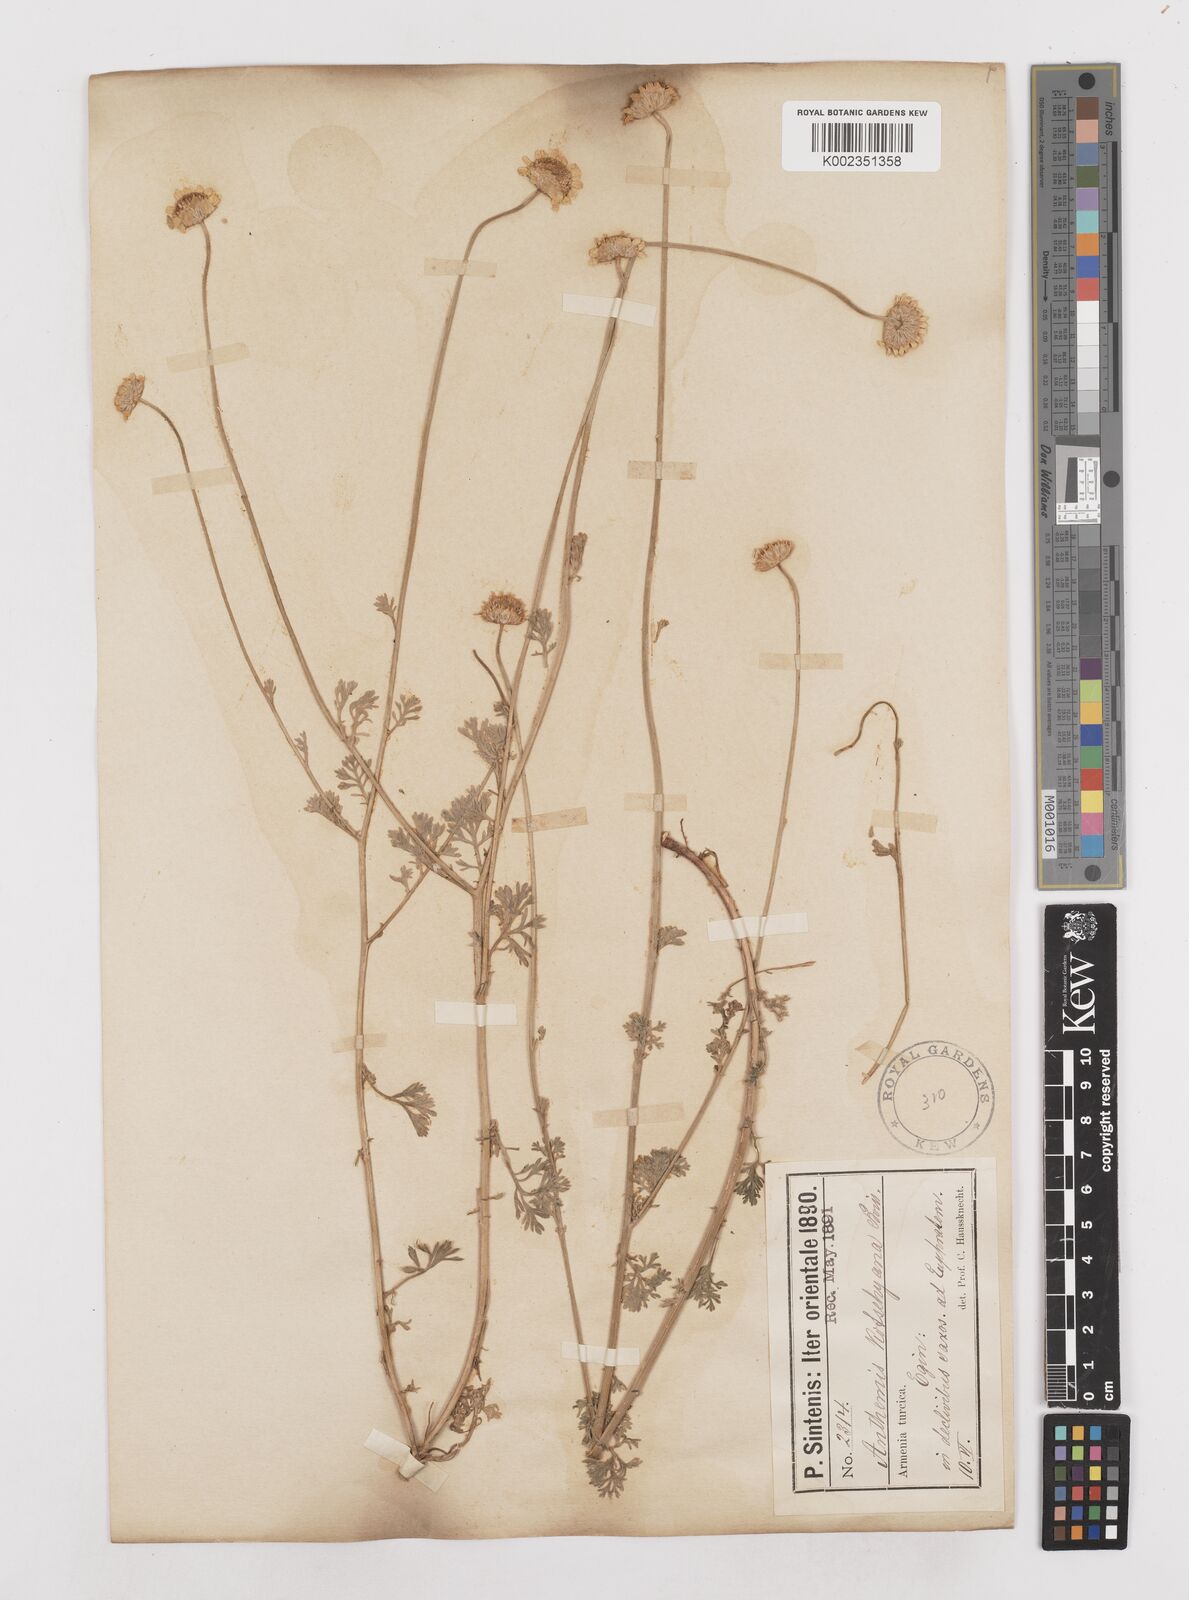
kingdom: Plantae
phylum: Tracheophyta
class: Magnoliopsida
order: Asterales
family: Asteraceae
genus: Anthemis
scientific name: Anthemis kotschyana
